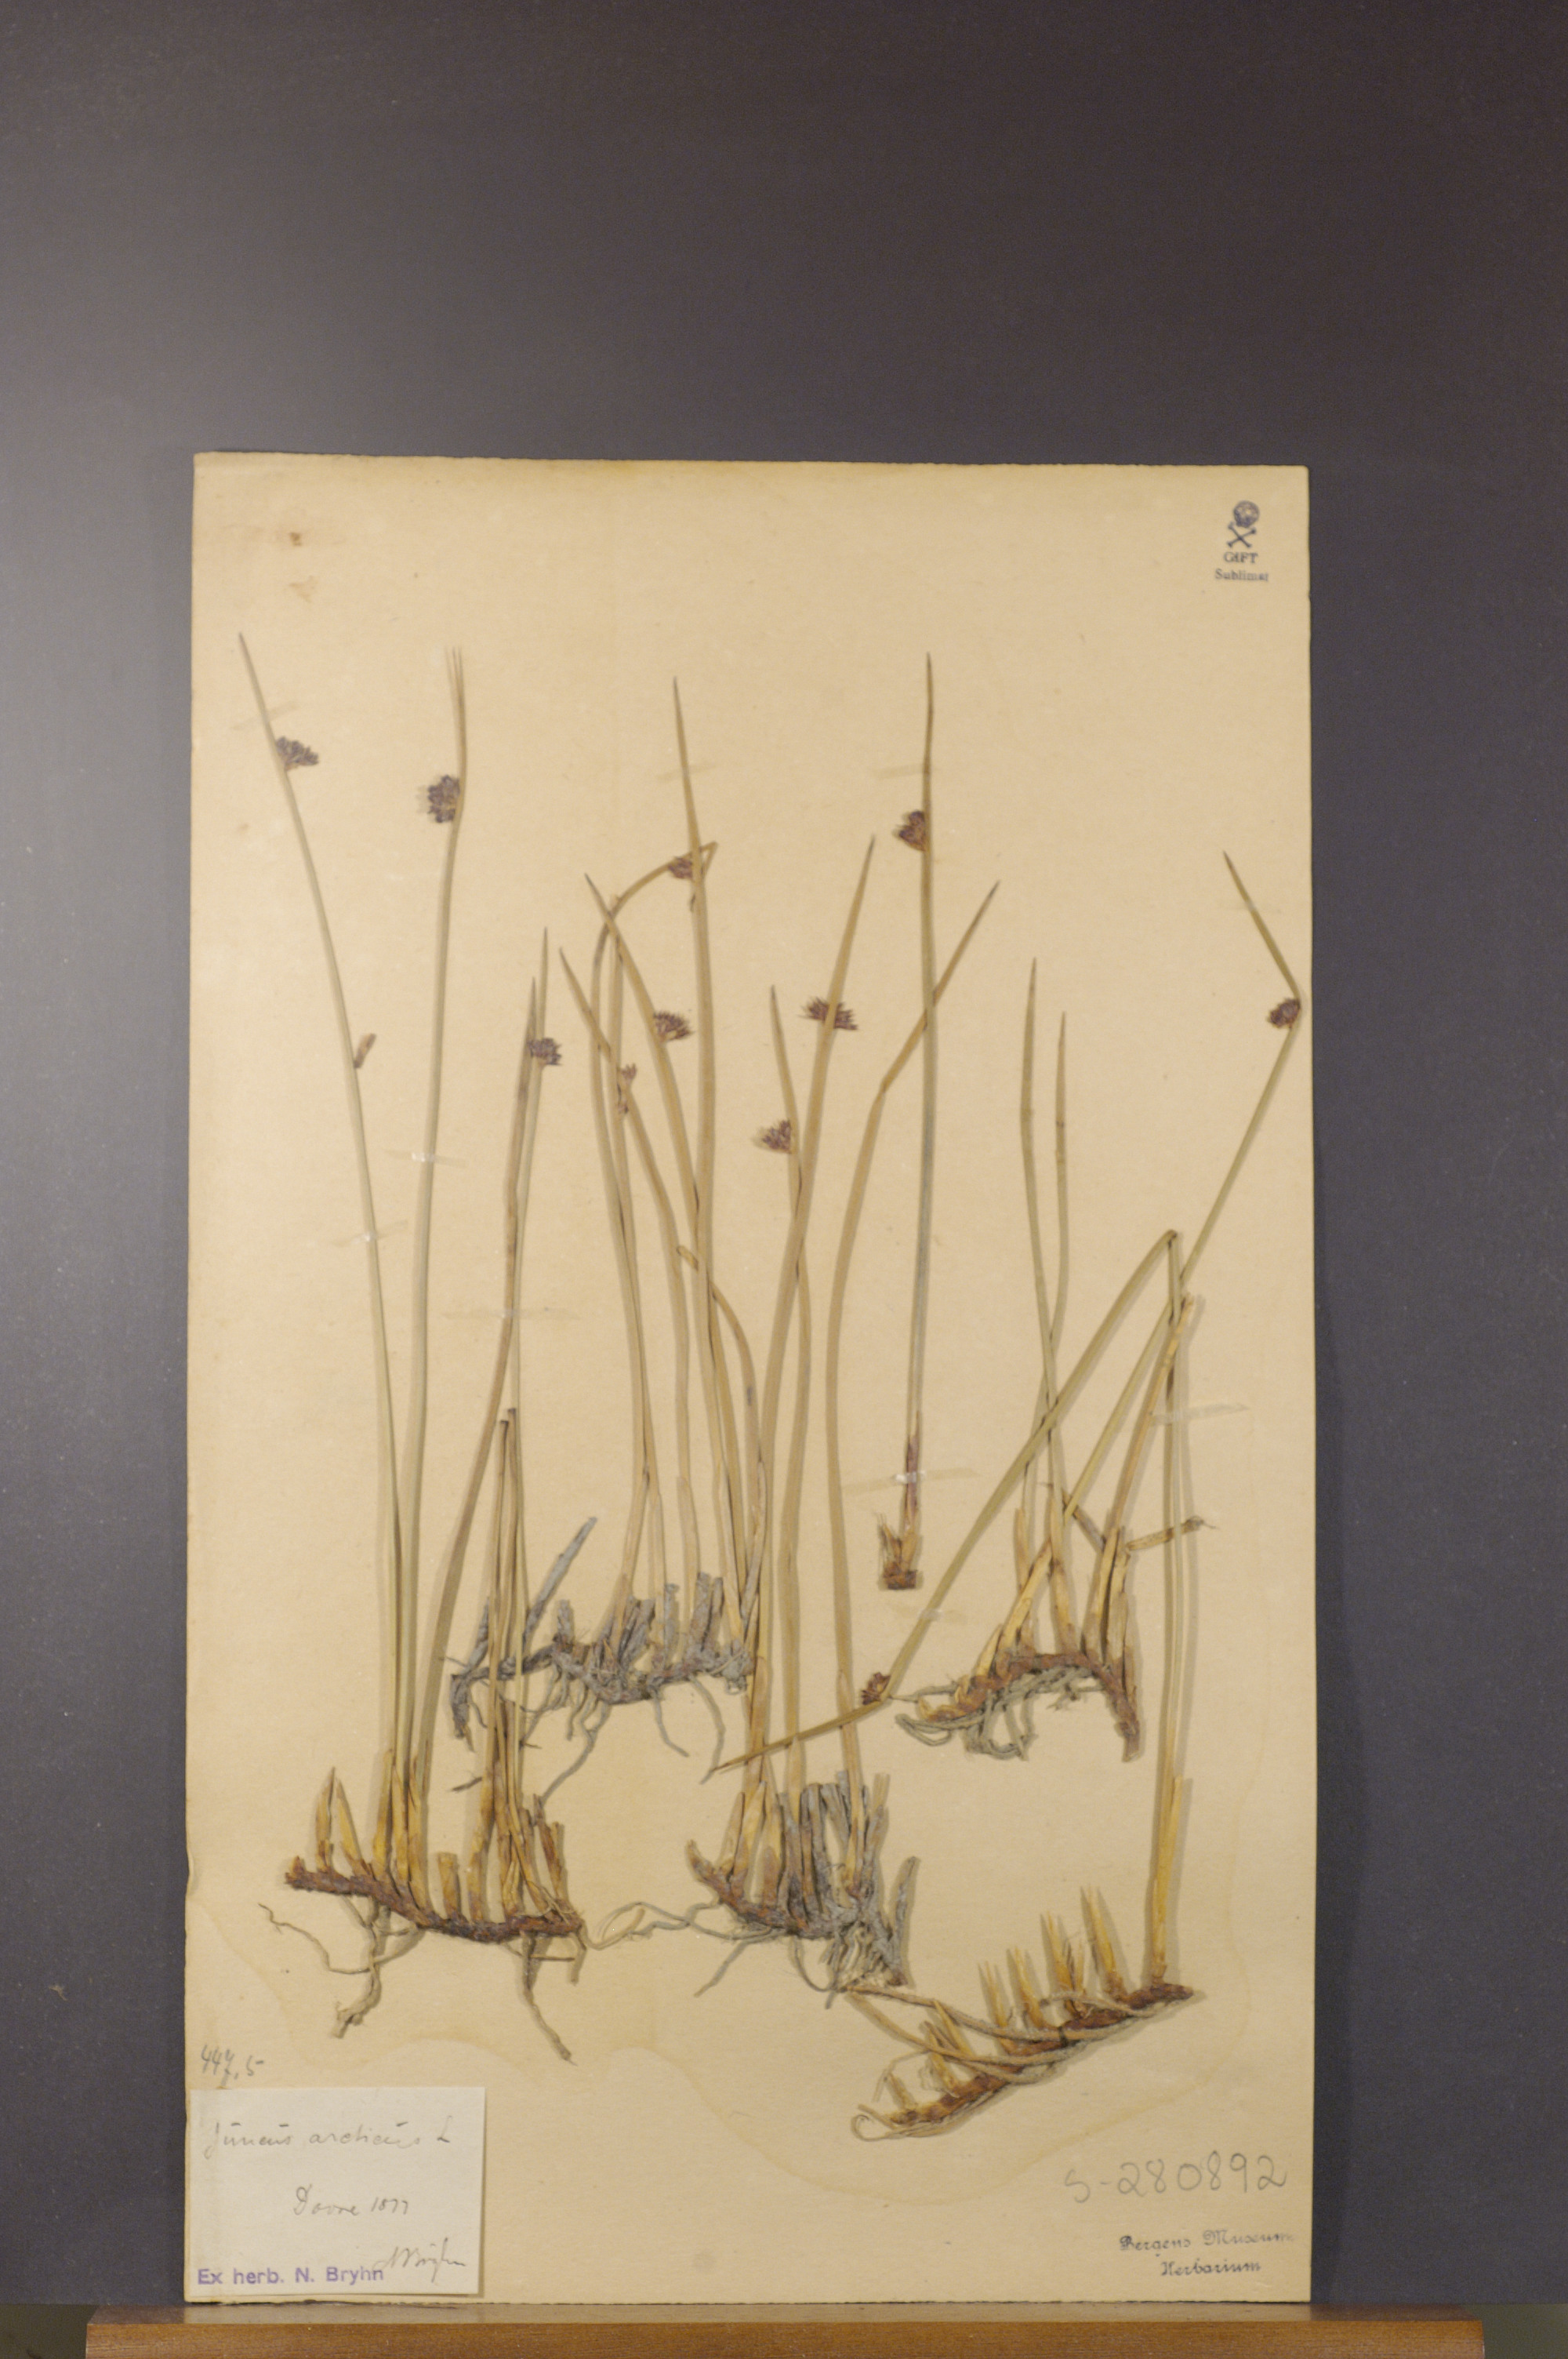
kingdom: Plantae
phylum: Tracheophyta
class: Liliopsida
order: Poales
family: Juncaceae
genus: Juncus
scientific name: Juncus arcticus
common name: Arctic rush
